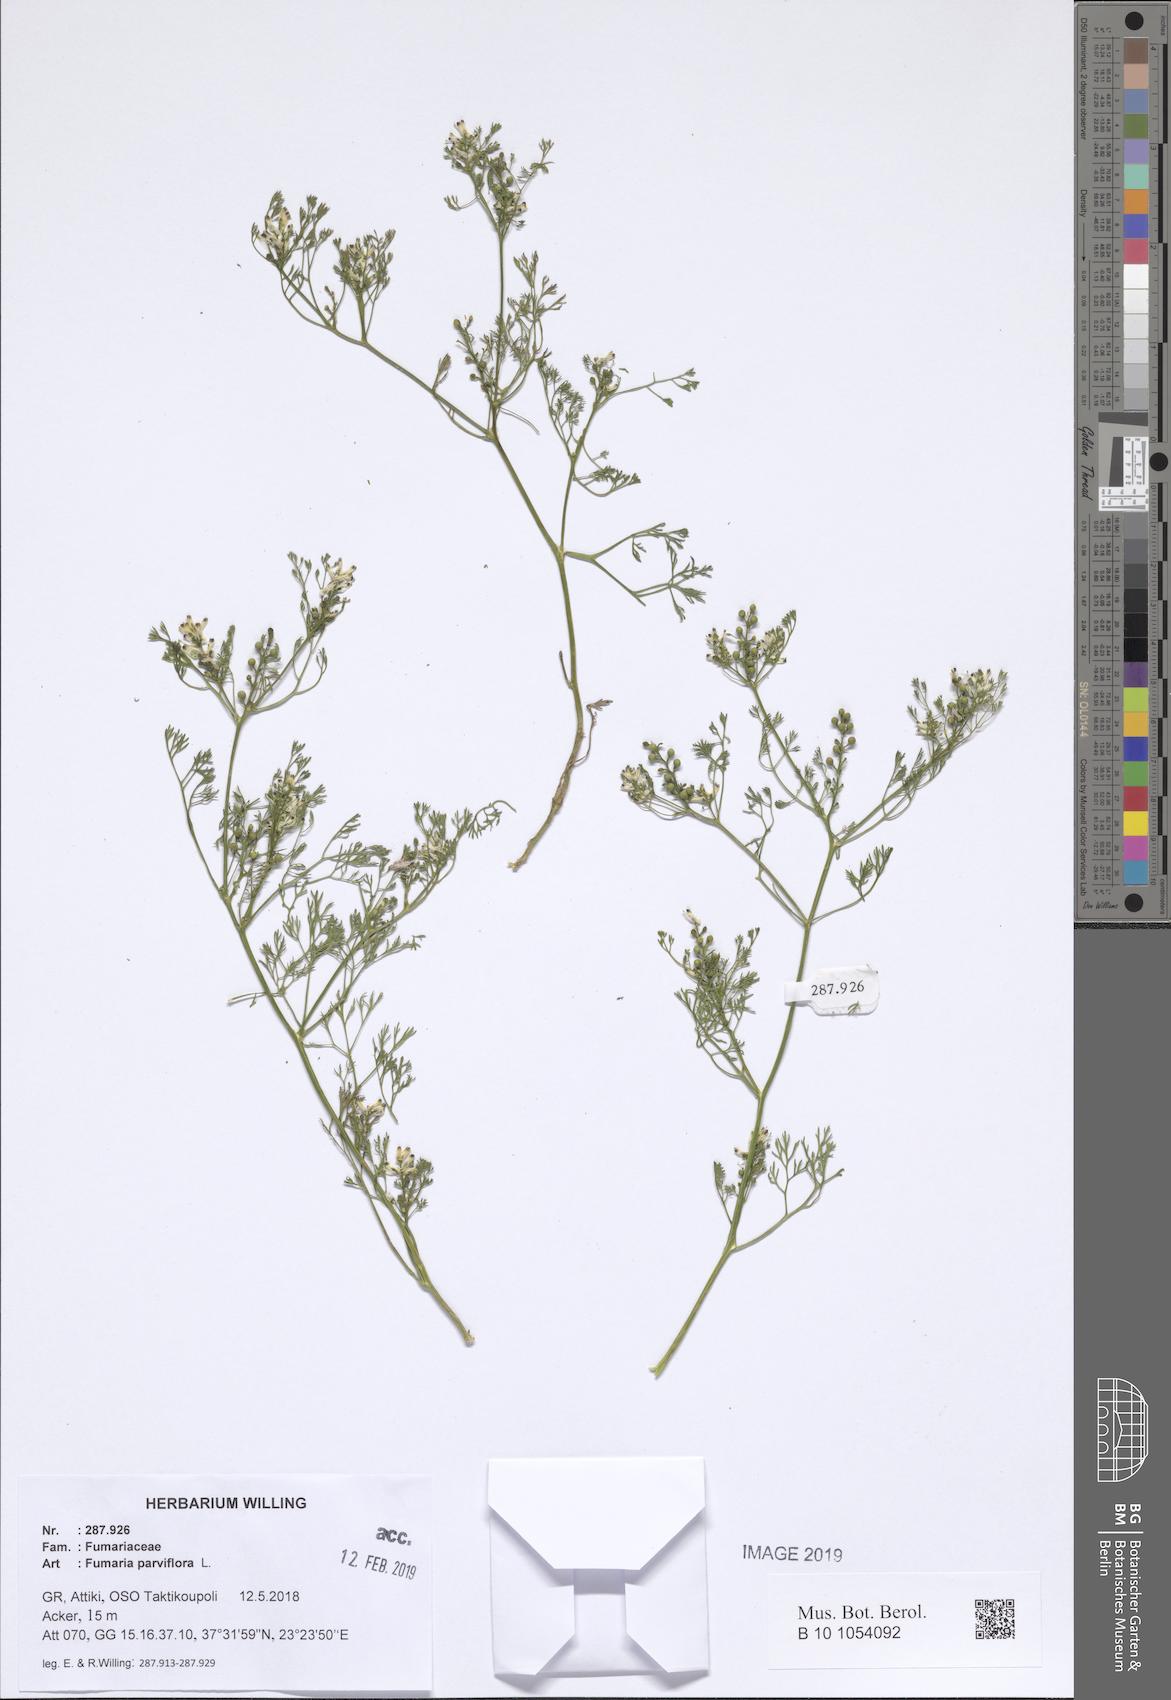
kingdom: Plantae
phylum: Tracheophyta
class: Magnoliopsida
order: Ranunculales
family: Papaveraceae
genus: Fumaria
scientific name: Fumaria parviflora
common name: Fine-leaved fumitory
